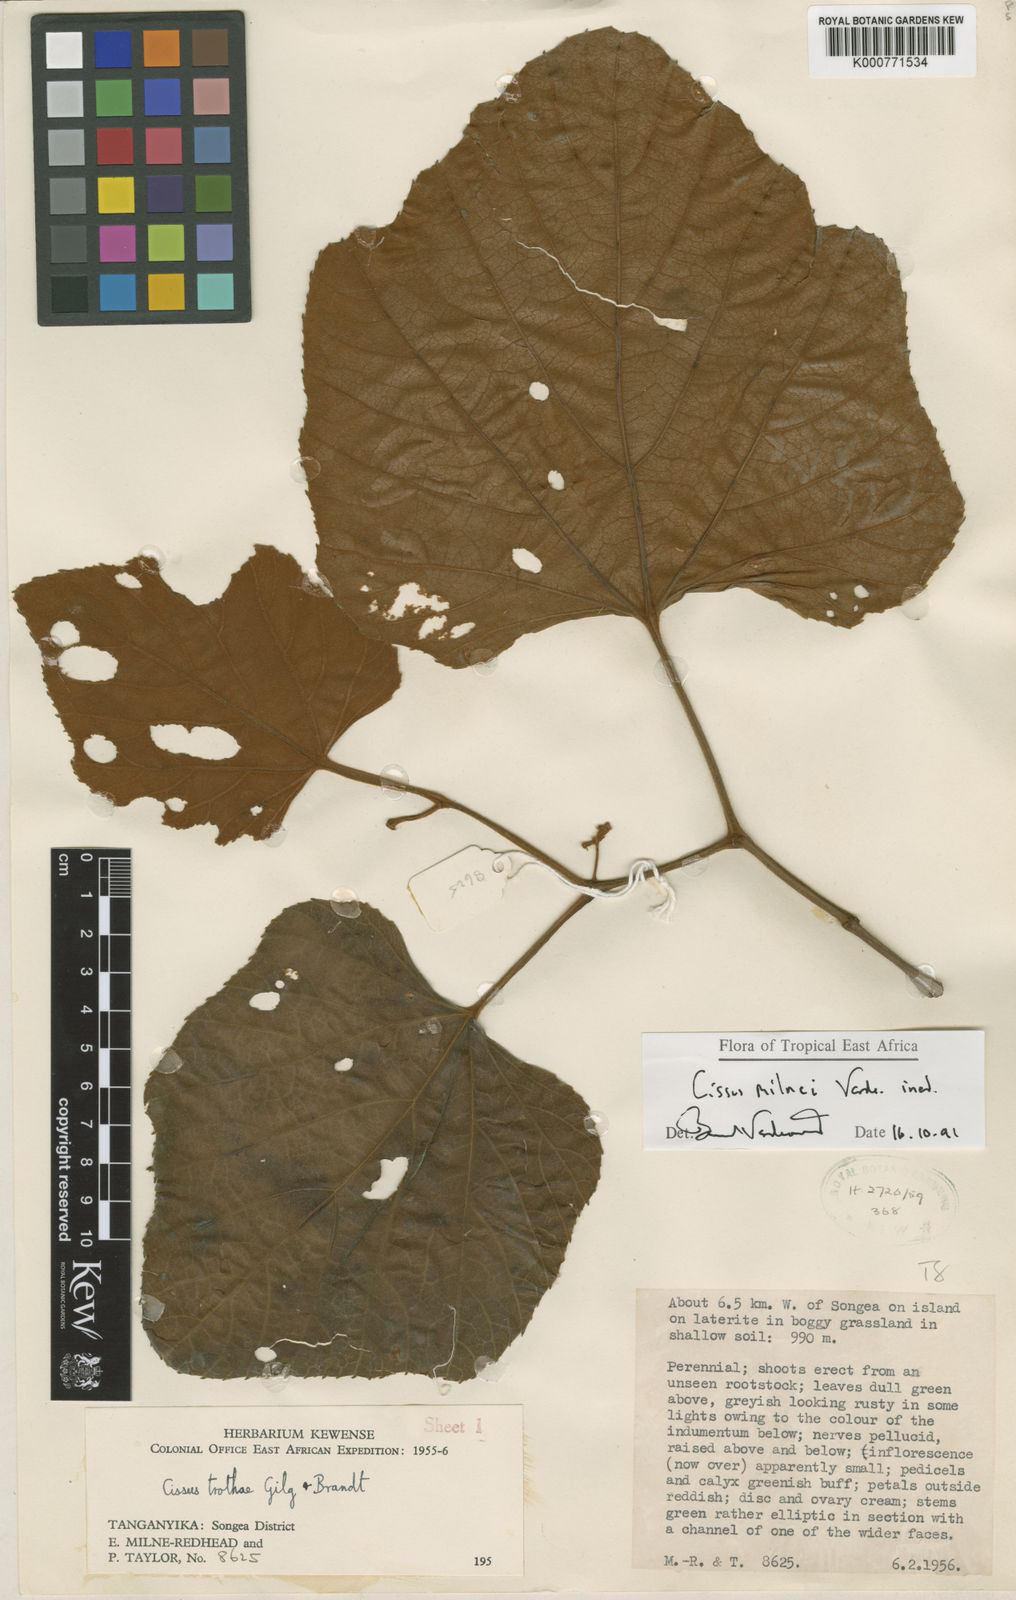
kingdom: Plantae
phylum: Tracheophyta
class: Magnoliopsida
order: Vitales
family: Vitaceae
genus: Cissus
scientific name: Cissus milnei
